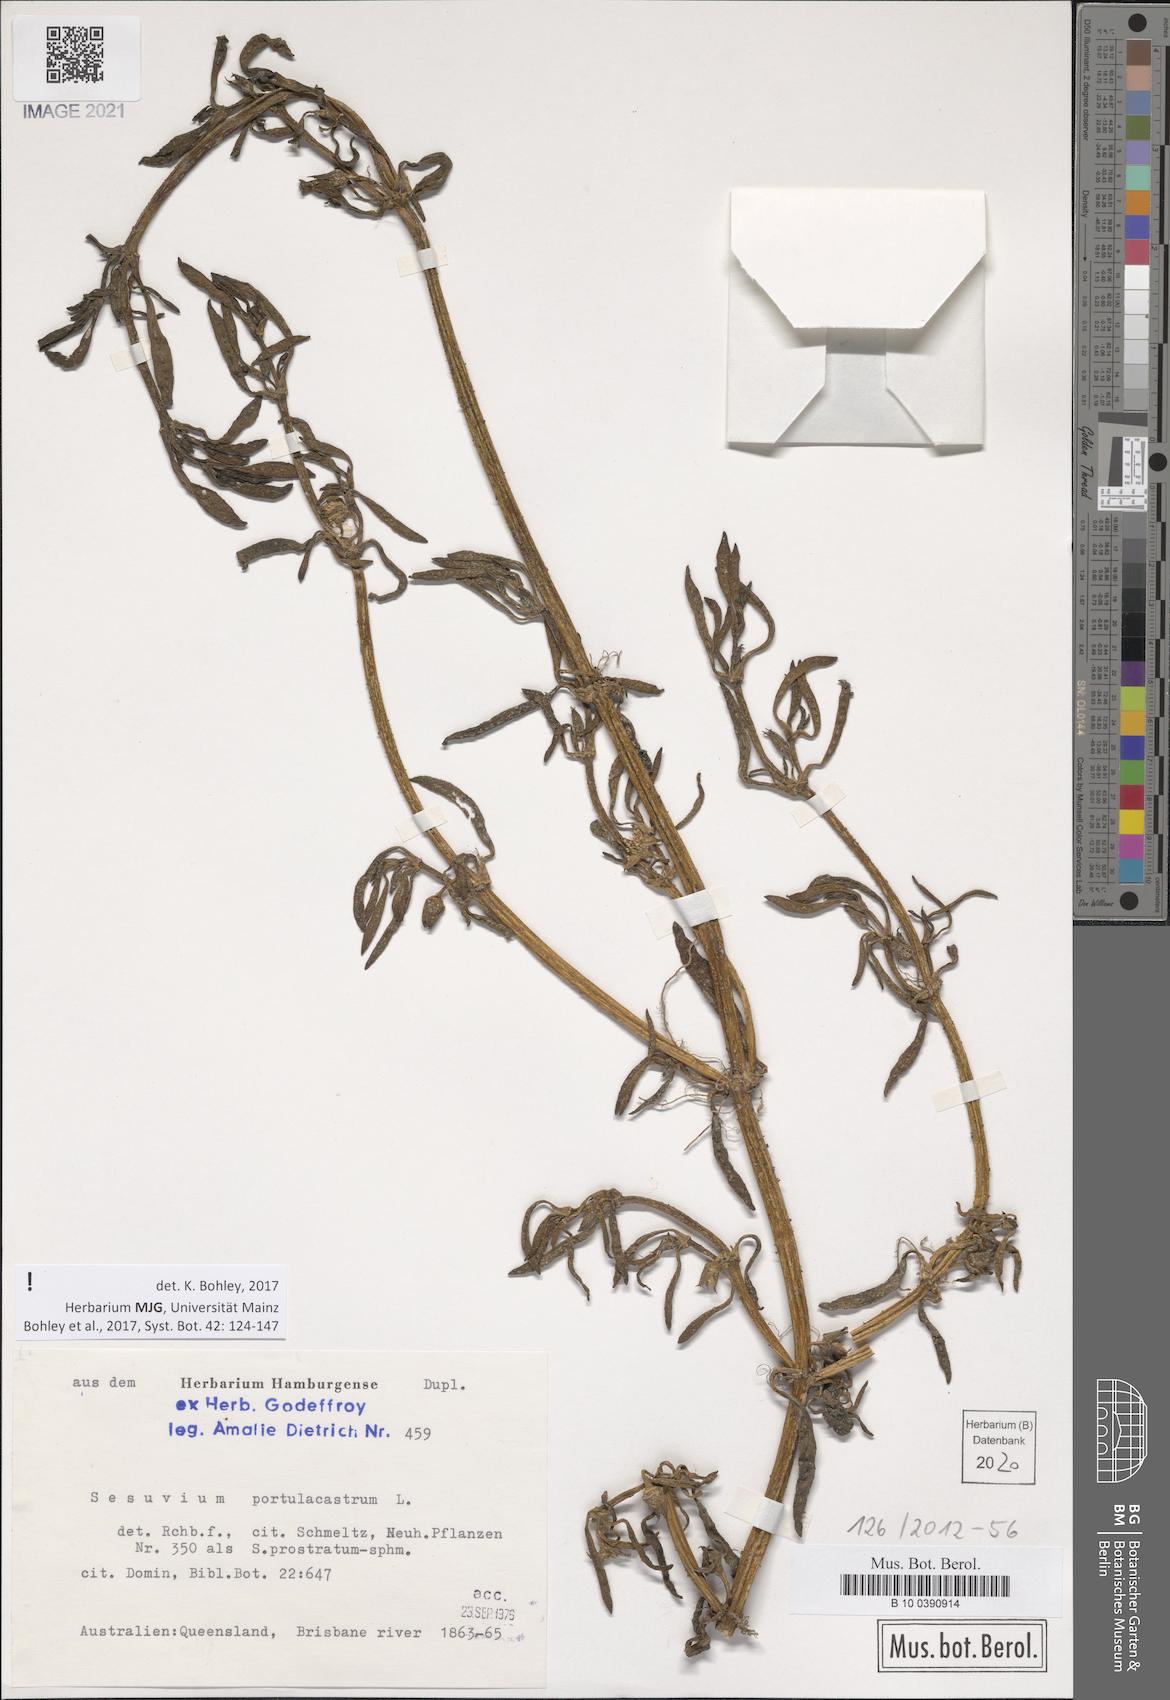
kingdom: Plantae
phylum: Tracheophyta
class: Magnoliopsida
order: Caryophyllales
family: Aizoaceae
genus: Sesuvium
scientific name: Sesuvium portulacastrum
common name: Sea-purslane
